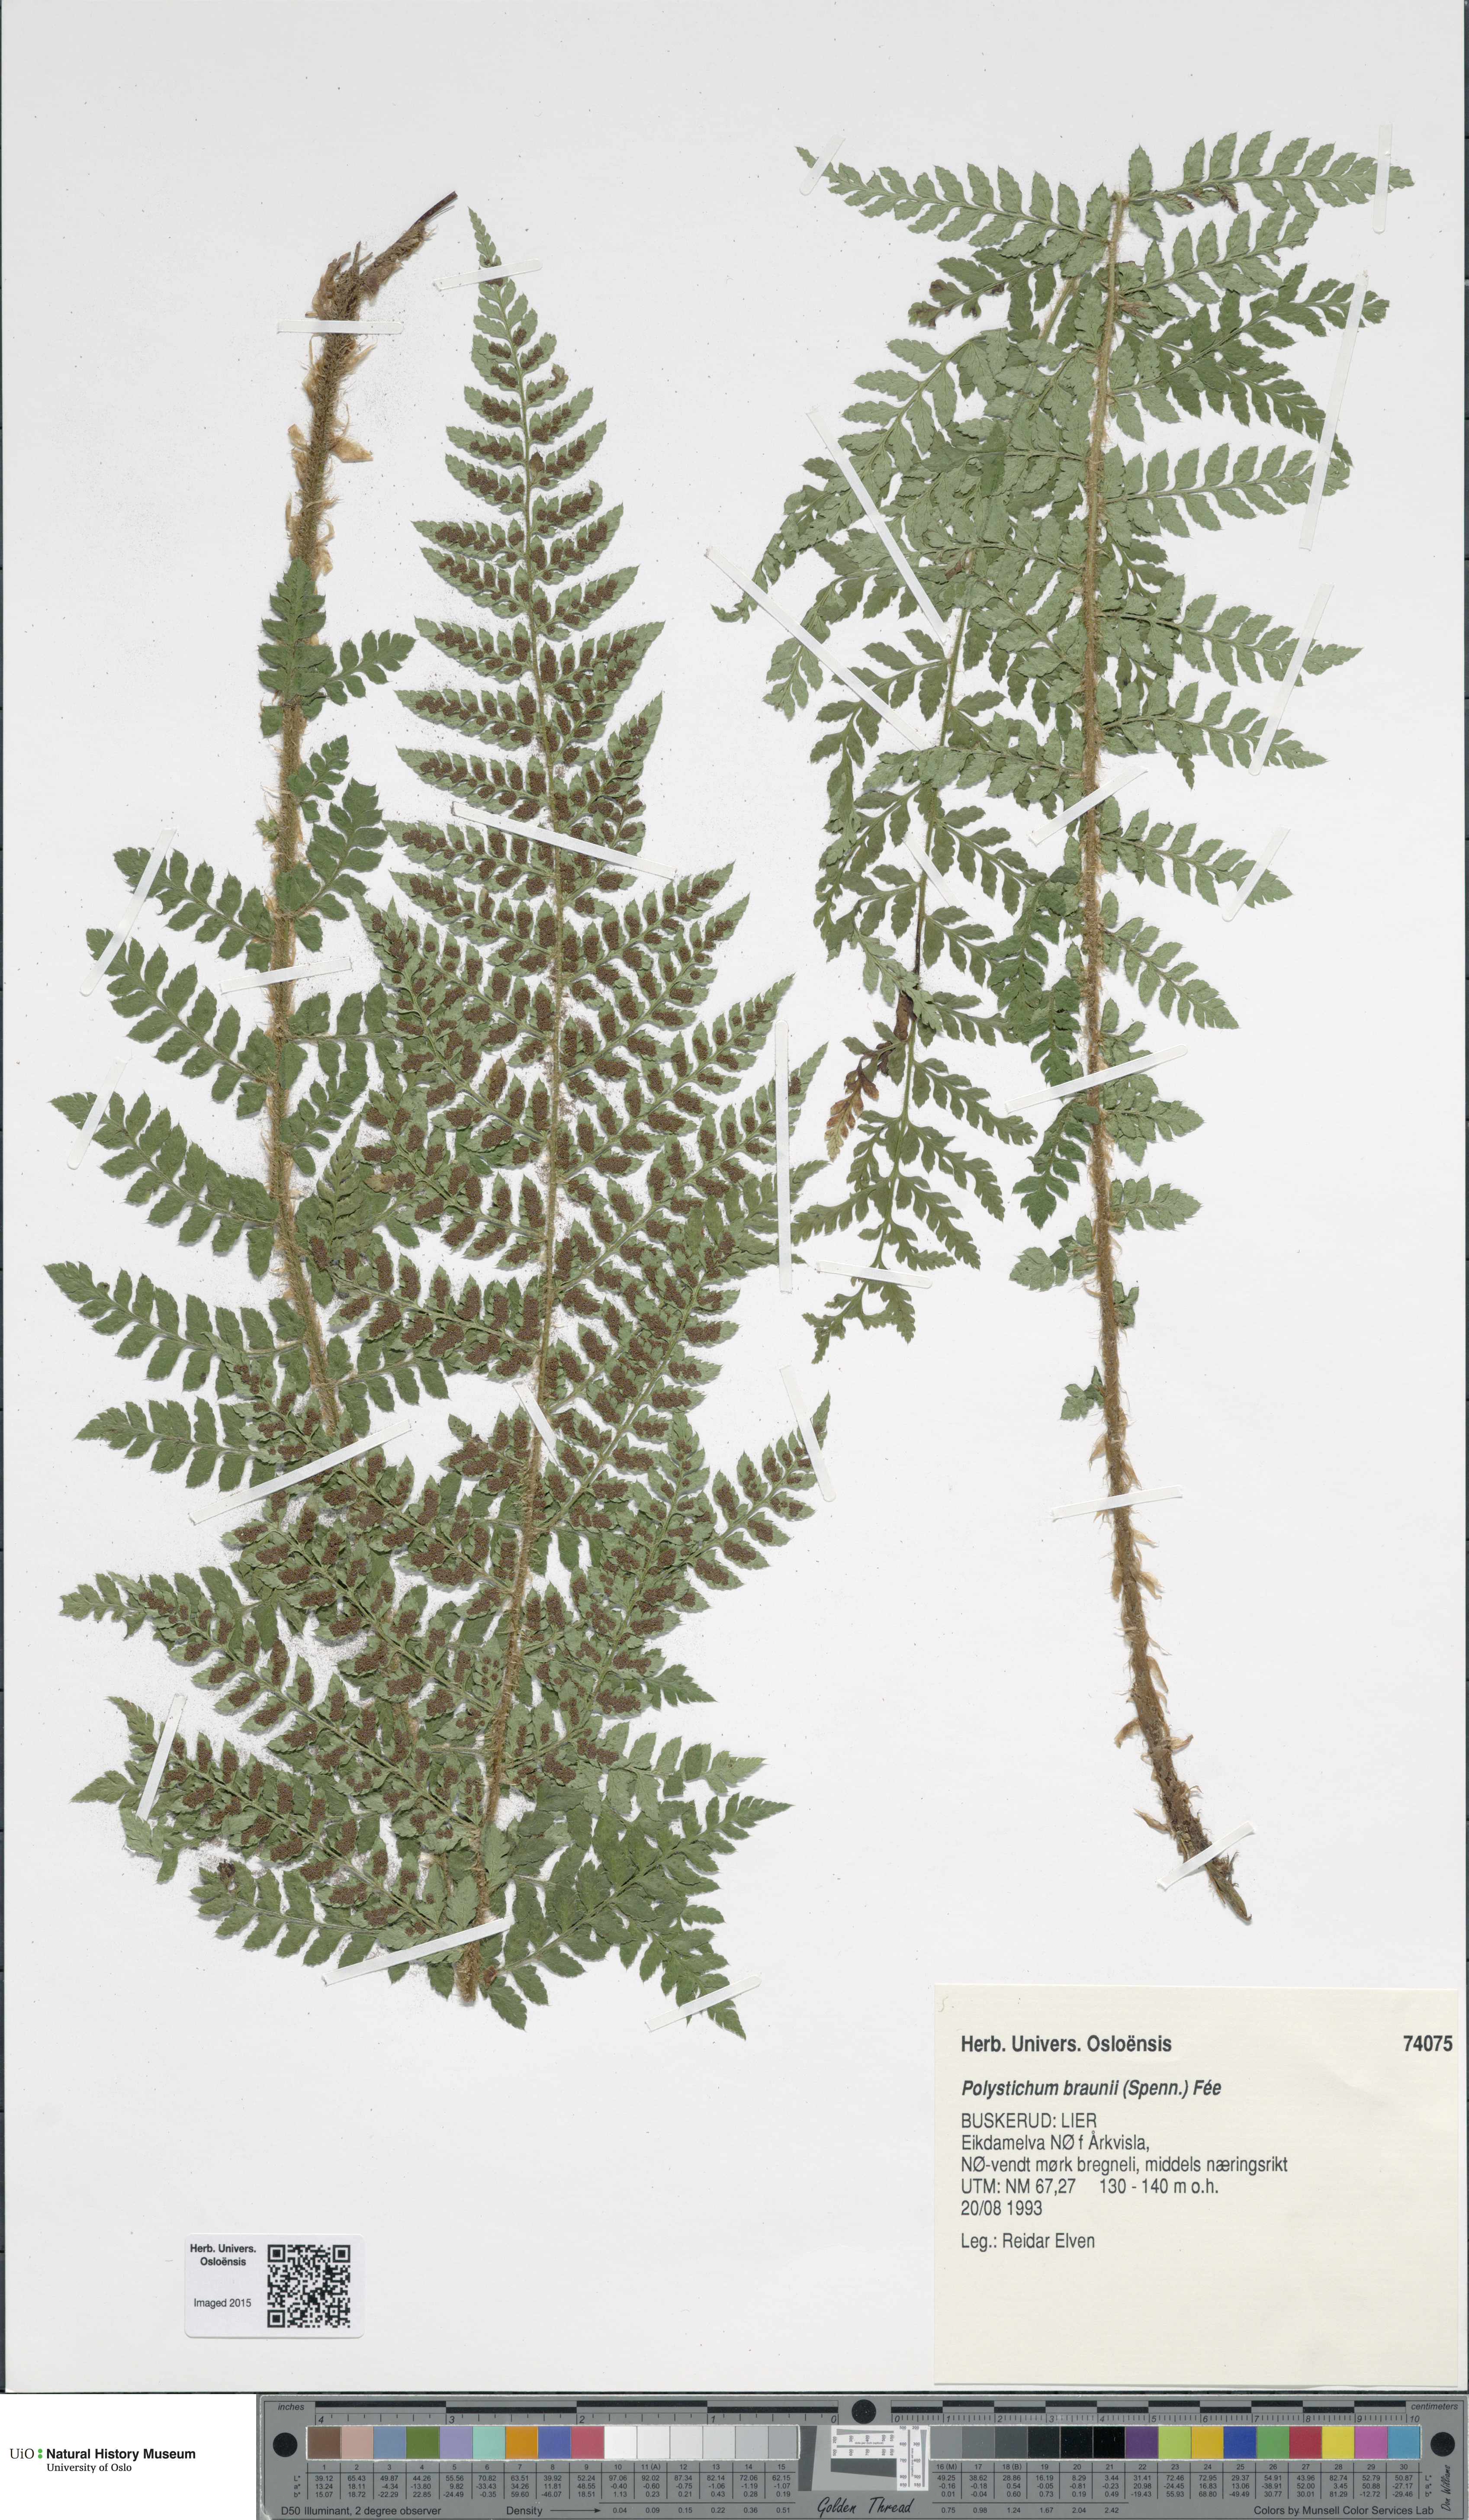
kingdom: Plantae
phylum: Tracheophyta
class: Polypodiopsida
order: Polypodiales
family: Dryopteridaceae
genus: Polystichum
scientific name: Polystichum braunii
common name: Braun's holly fern
